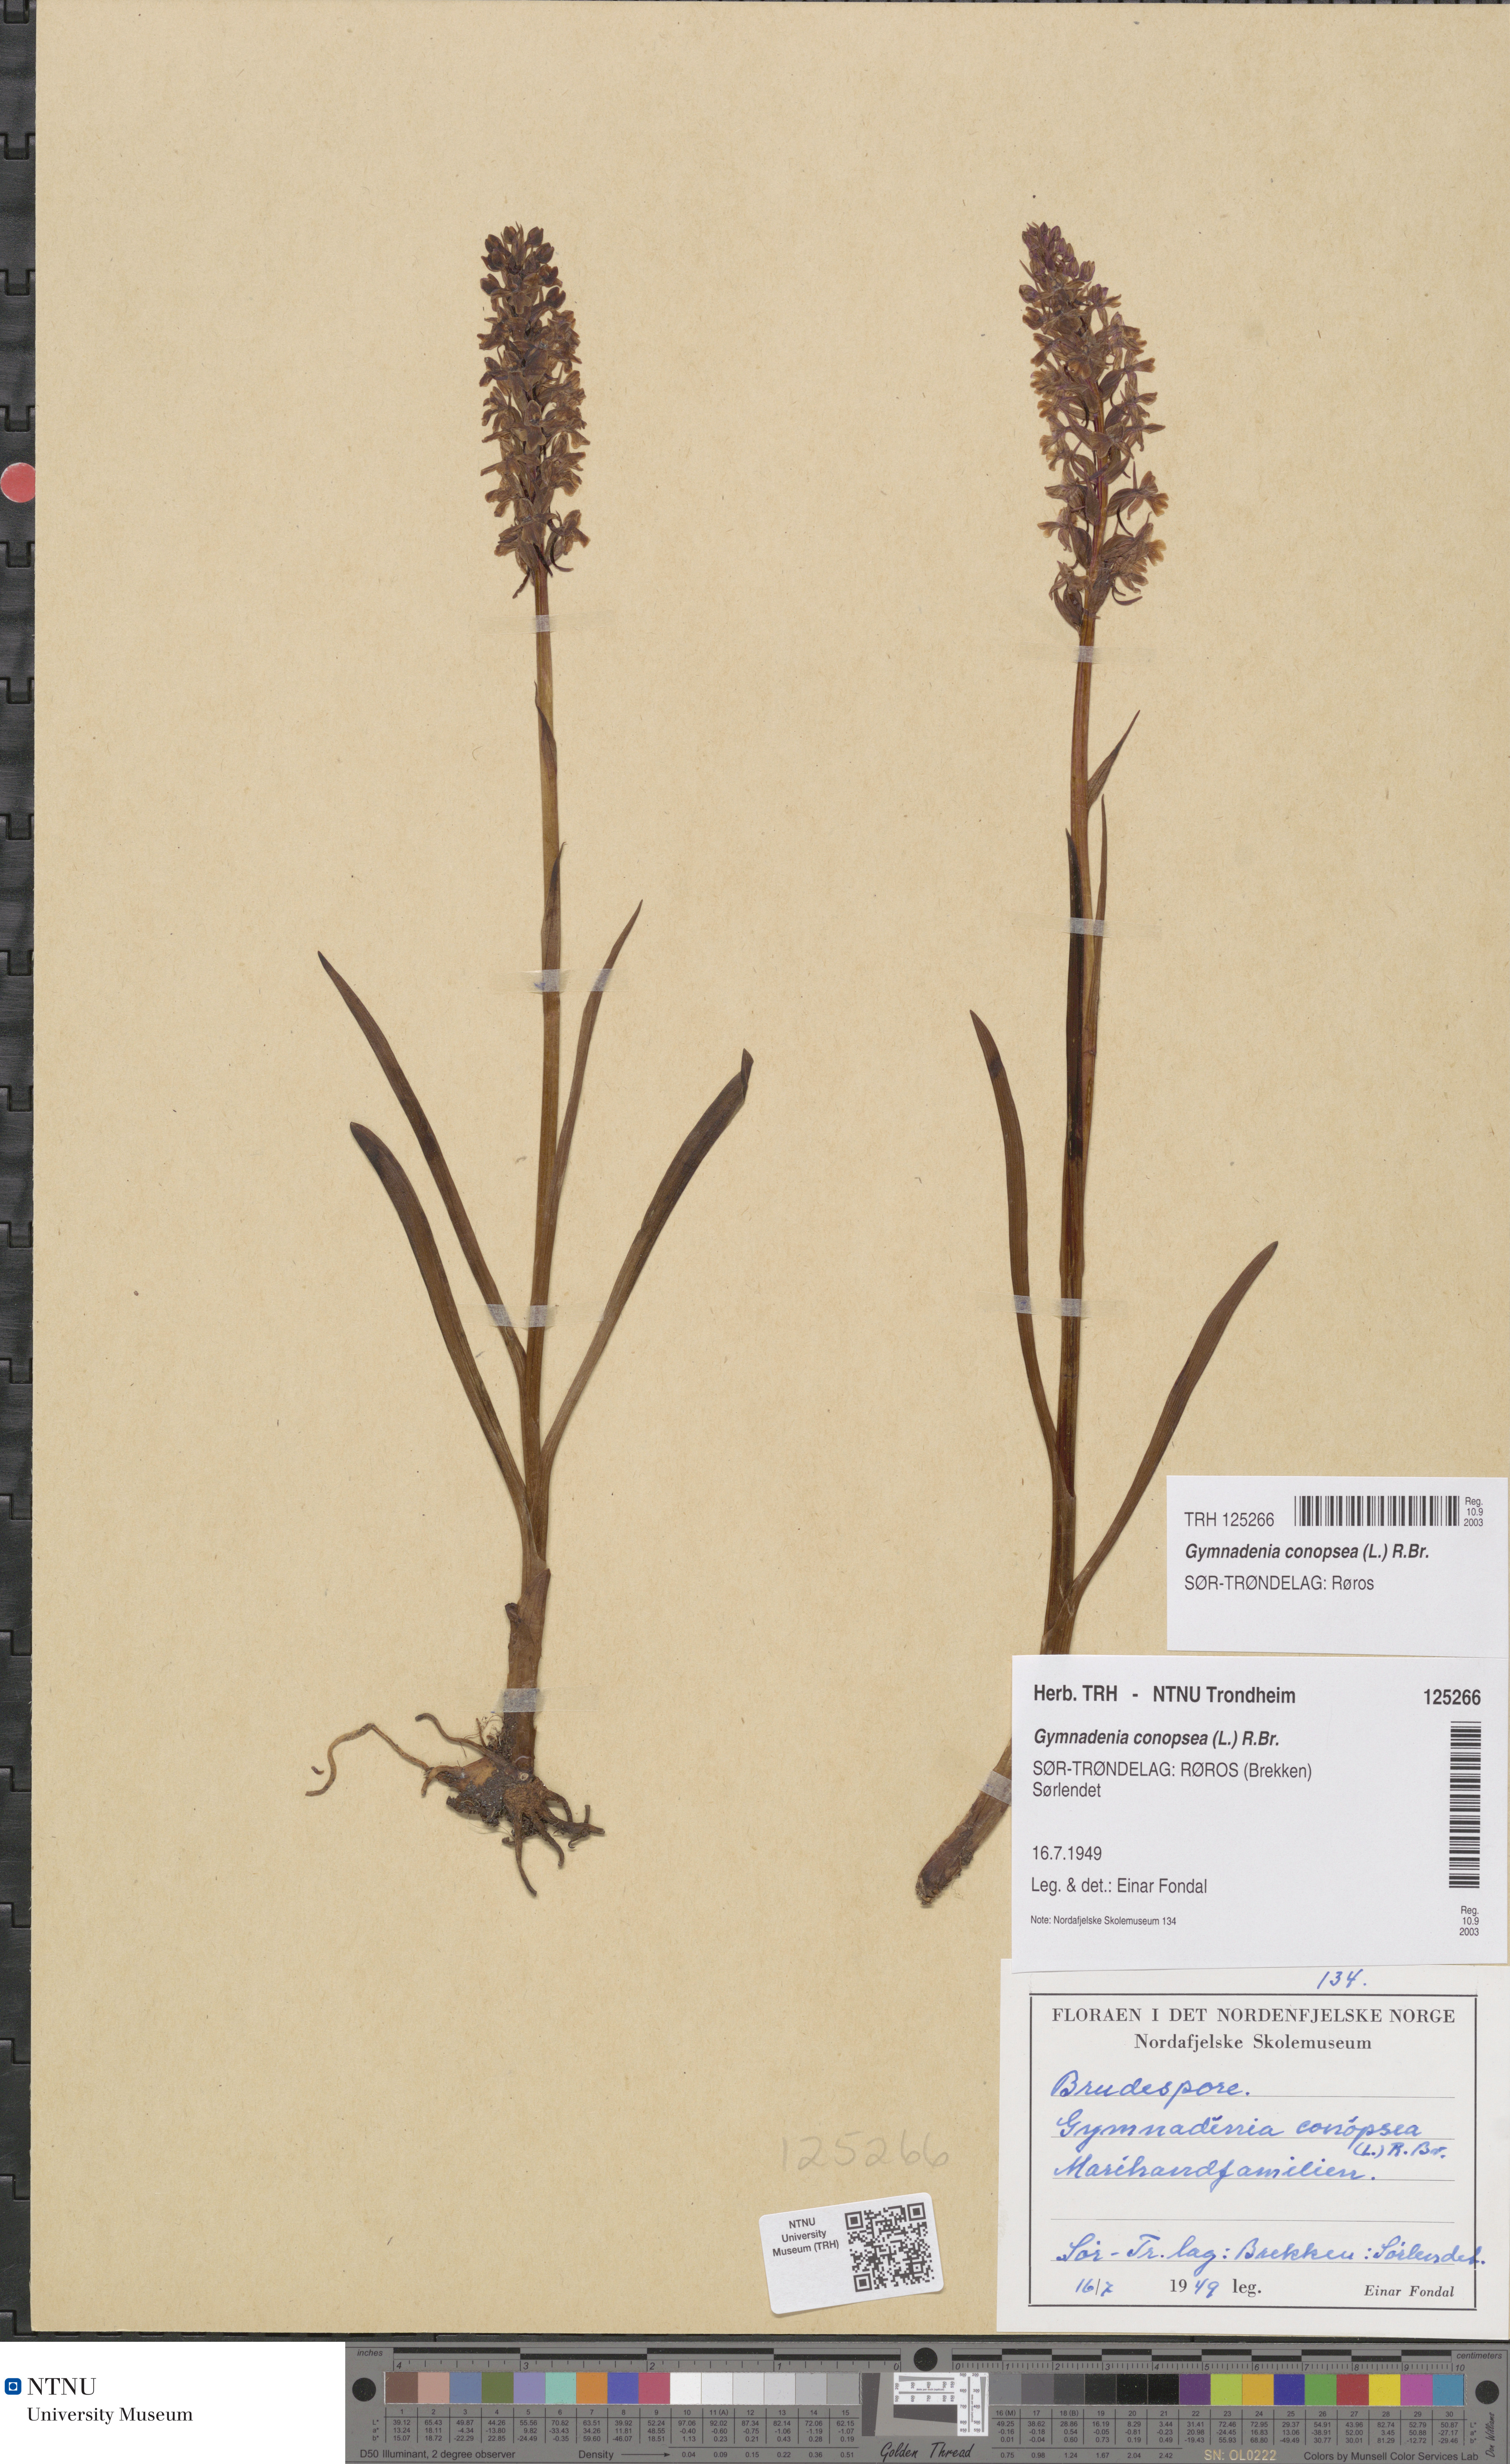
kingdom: Plantae
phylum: Tracheophyta
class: Liliopsida
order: Asparagales
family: Orchidaceae
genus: Gymnadenia
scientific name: Gymnadenia conopsea
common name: Fragrant orchid
